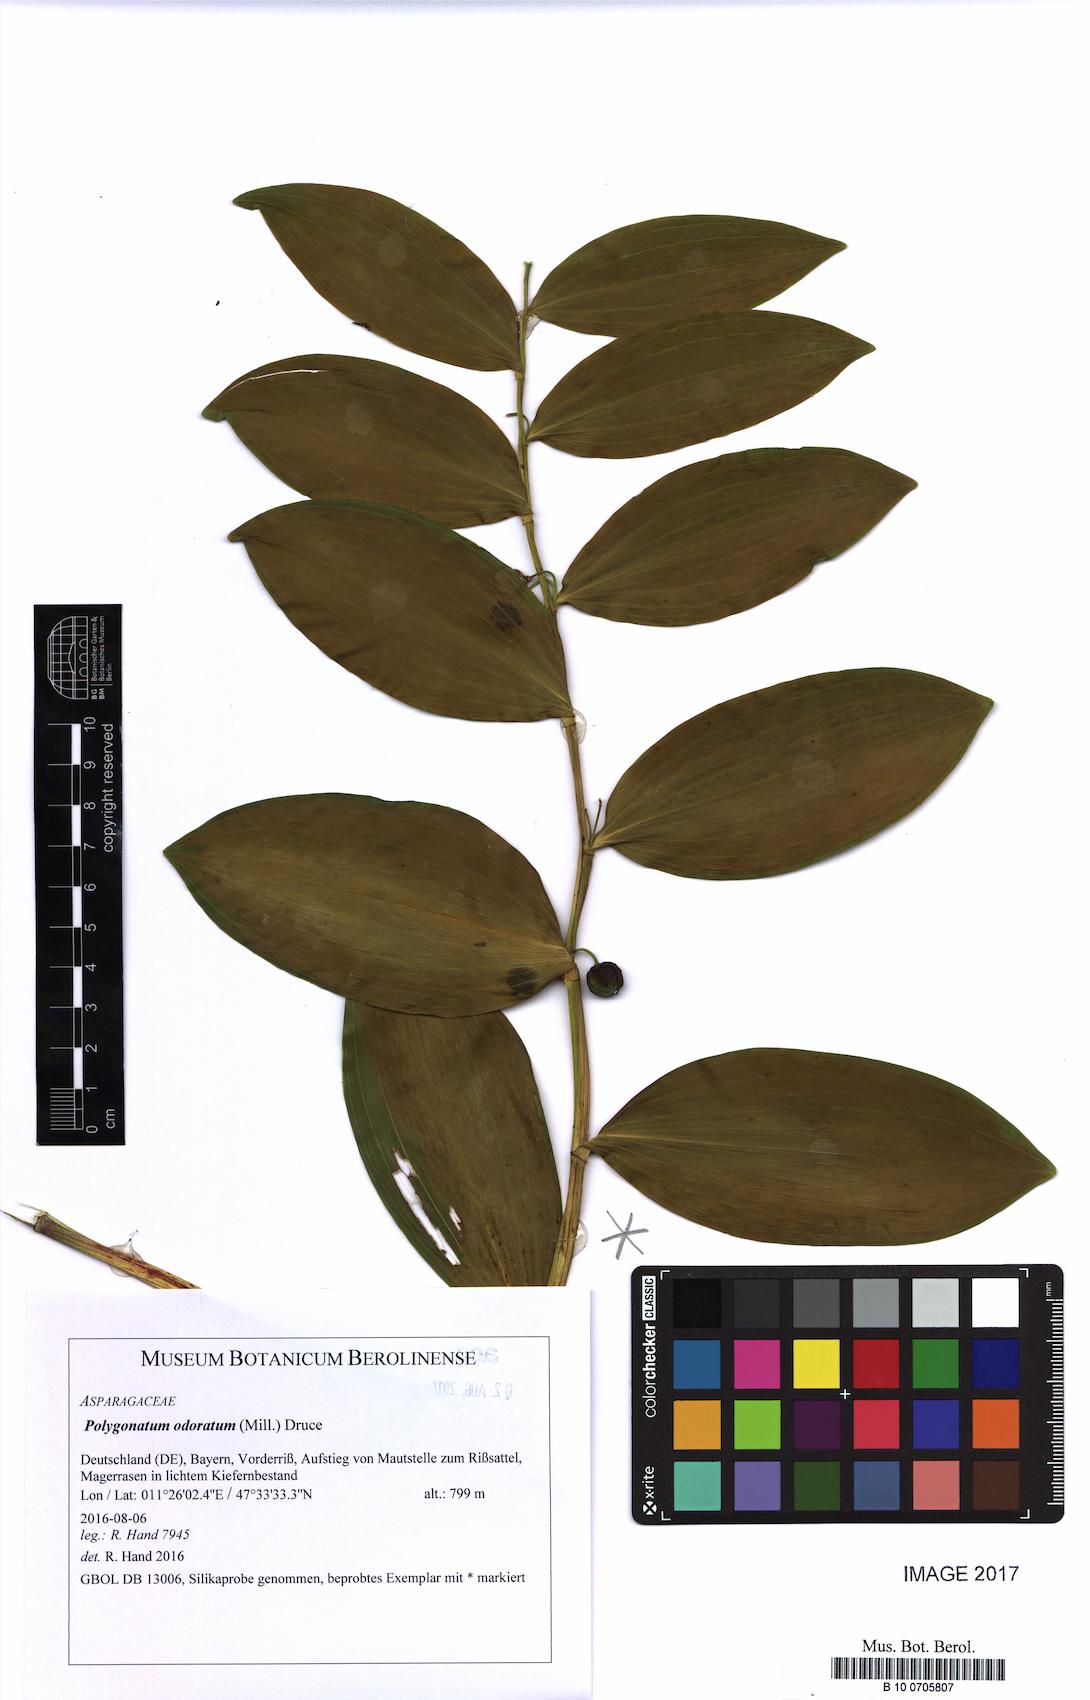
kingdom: Plantae
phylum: Tracheophyta
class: Liliopsida
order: Asparagales
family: Asparagaceae
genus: Polygonatum
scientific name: Polygonatum odoratum
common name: Angular solomon's-seal
